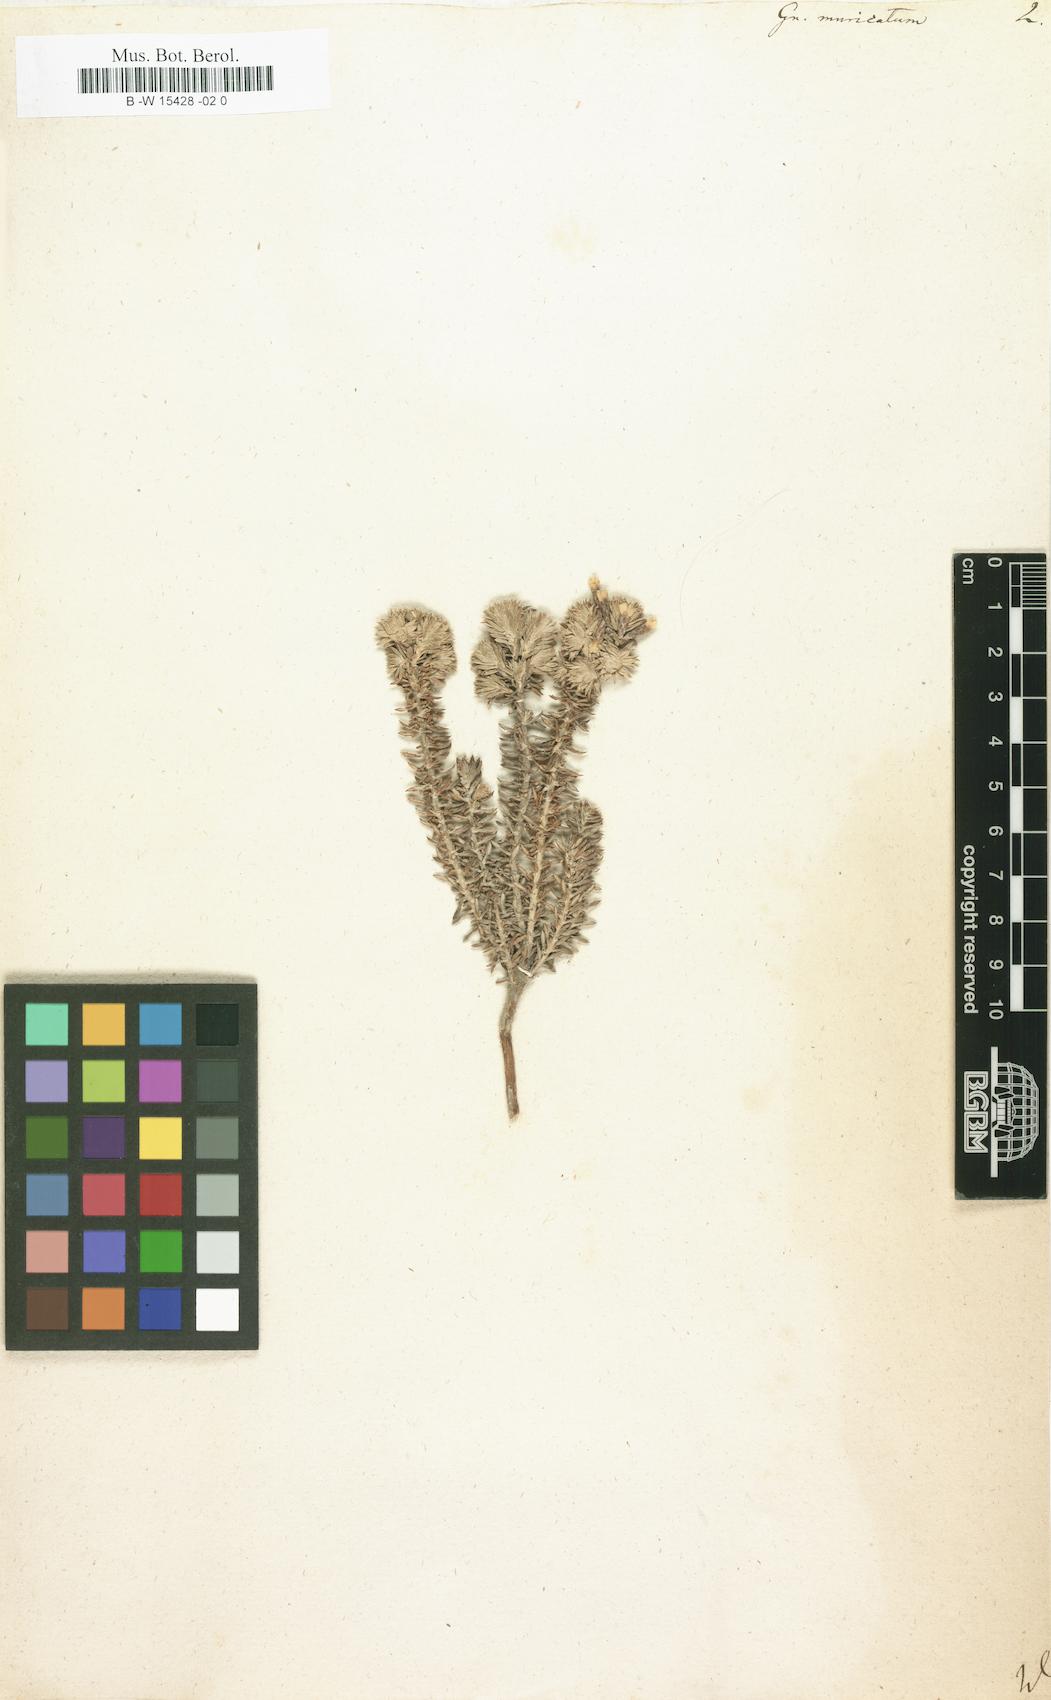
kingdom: Plantae
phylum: Tracheophyta
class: Magnoliopsida
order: Asterales
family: Asteraceae
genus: Metalasia
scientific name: Metalasia muricata
